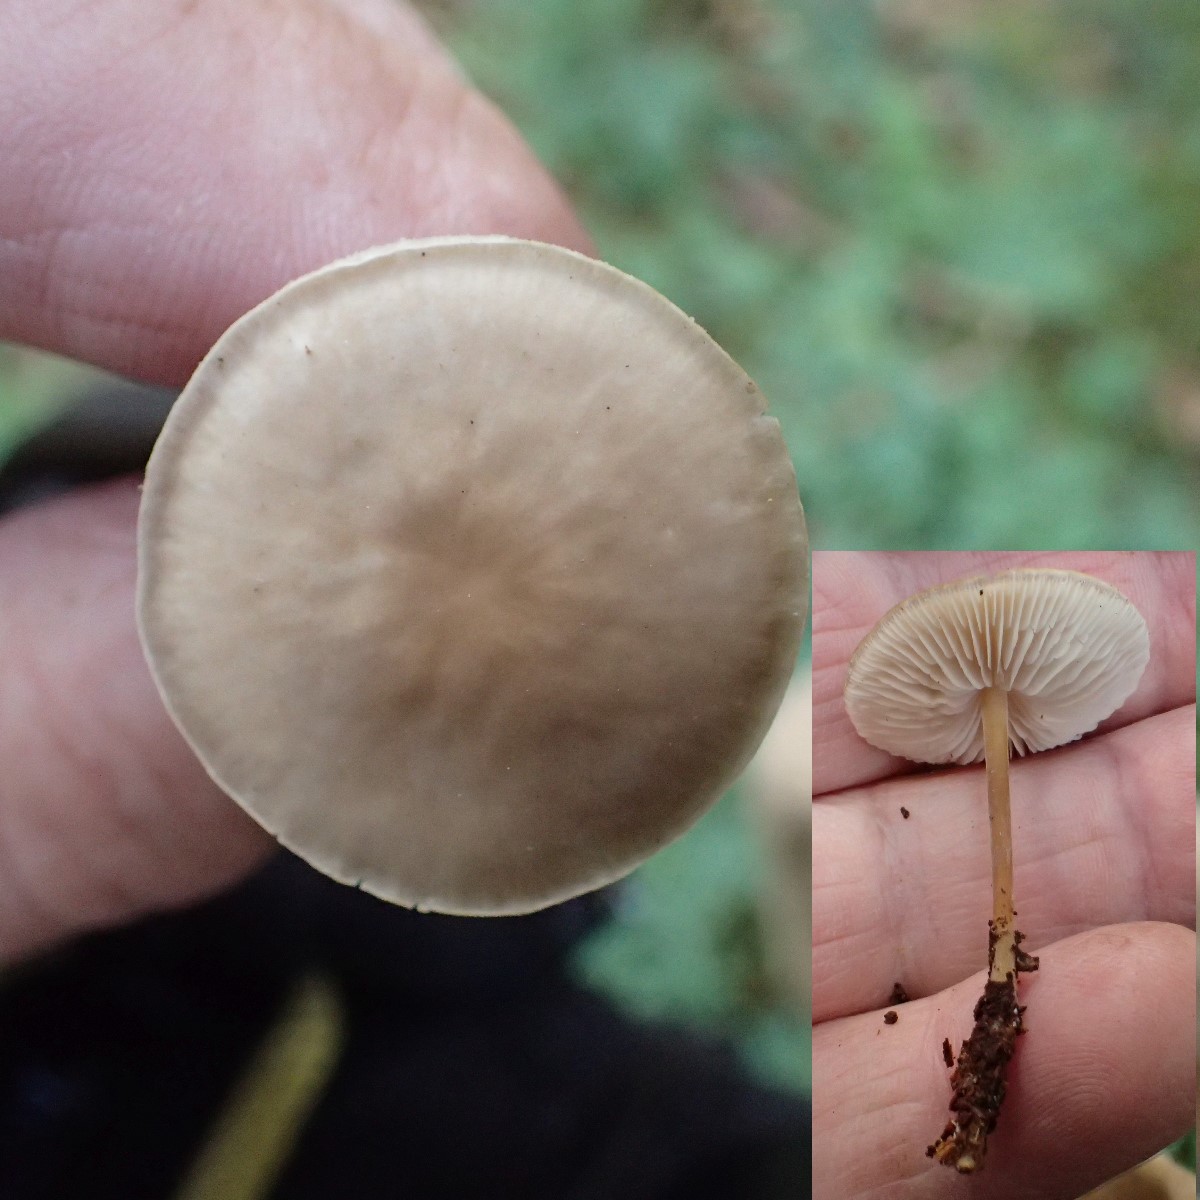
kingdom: Fungi
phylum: Basidiomycota
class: Agaricomycetes
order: Agaricales
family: Physalacriaceae
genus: Strobilurus
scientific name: Strobilurus
